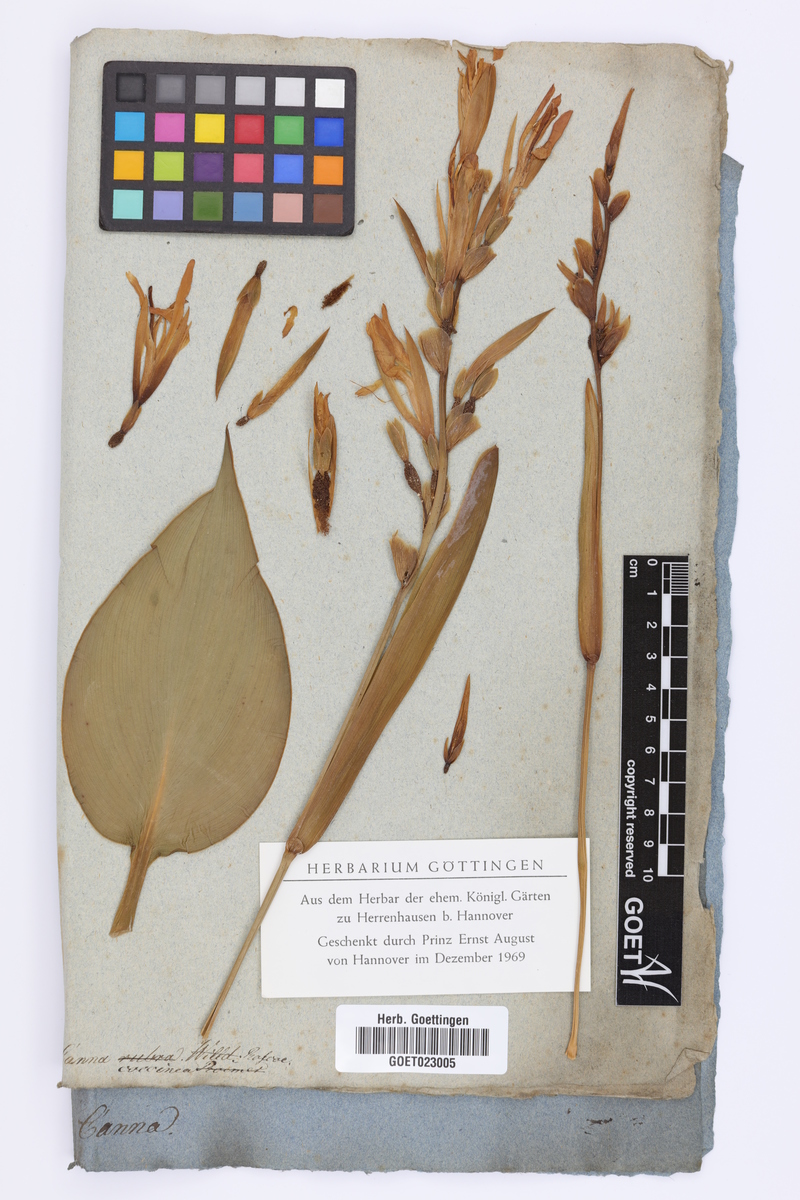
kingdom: Plantae
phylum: Tracheophyta
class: Liliopsida
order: Zingiberales
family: Cannaceae
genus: Canna
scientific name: Canna indica
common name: Indian shot
